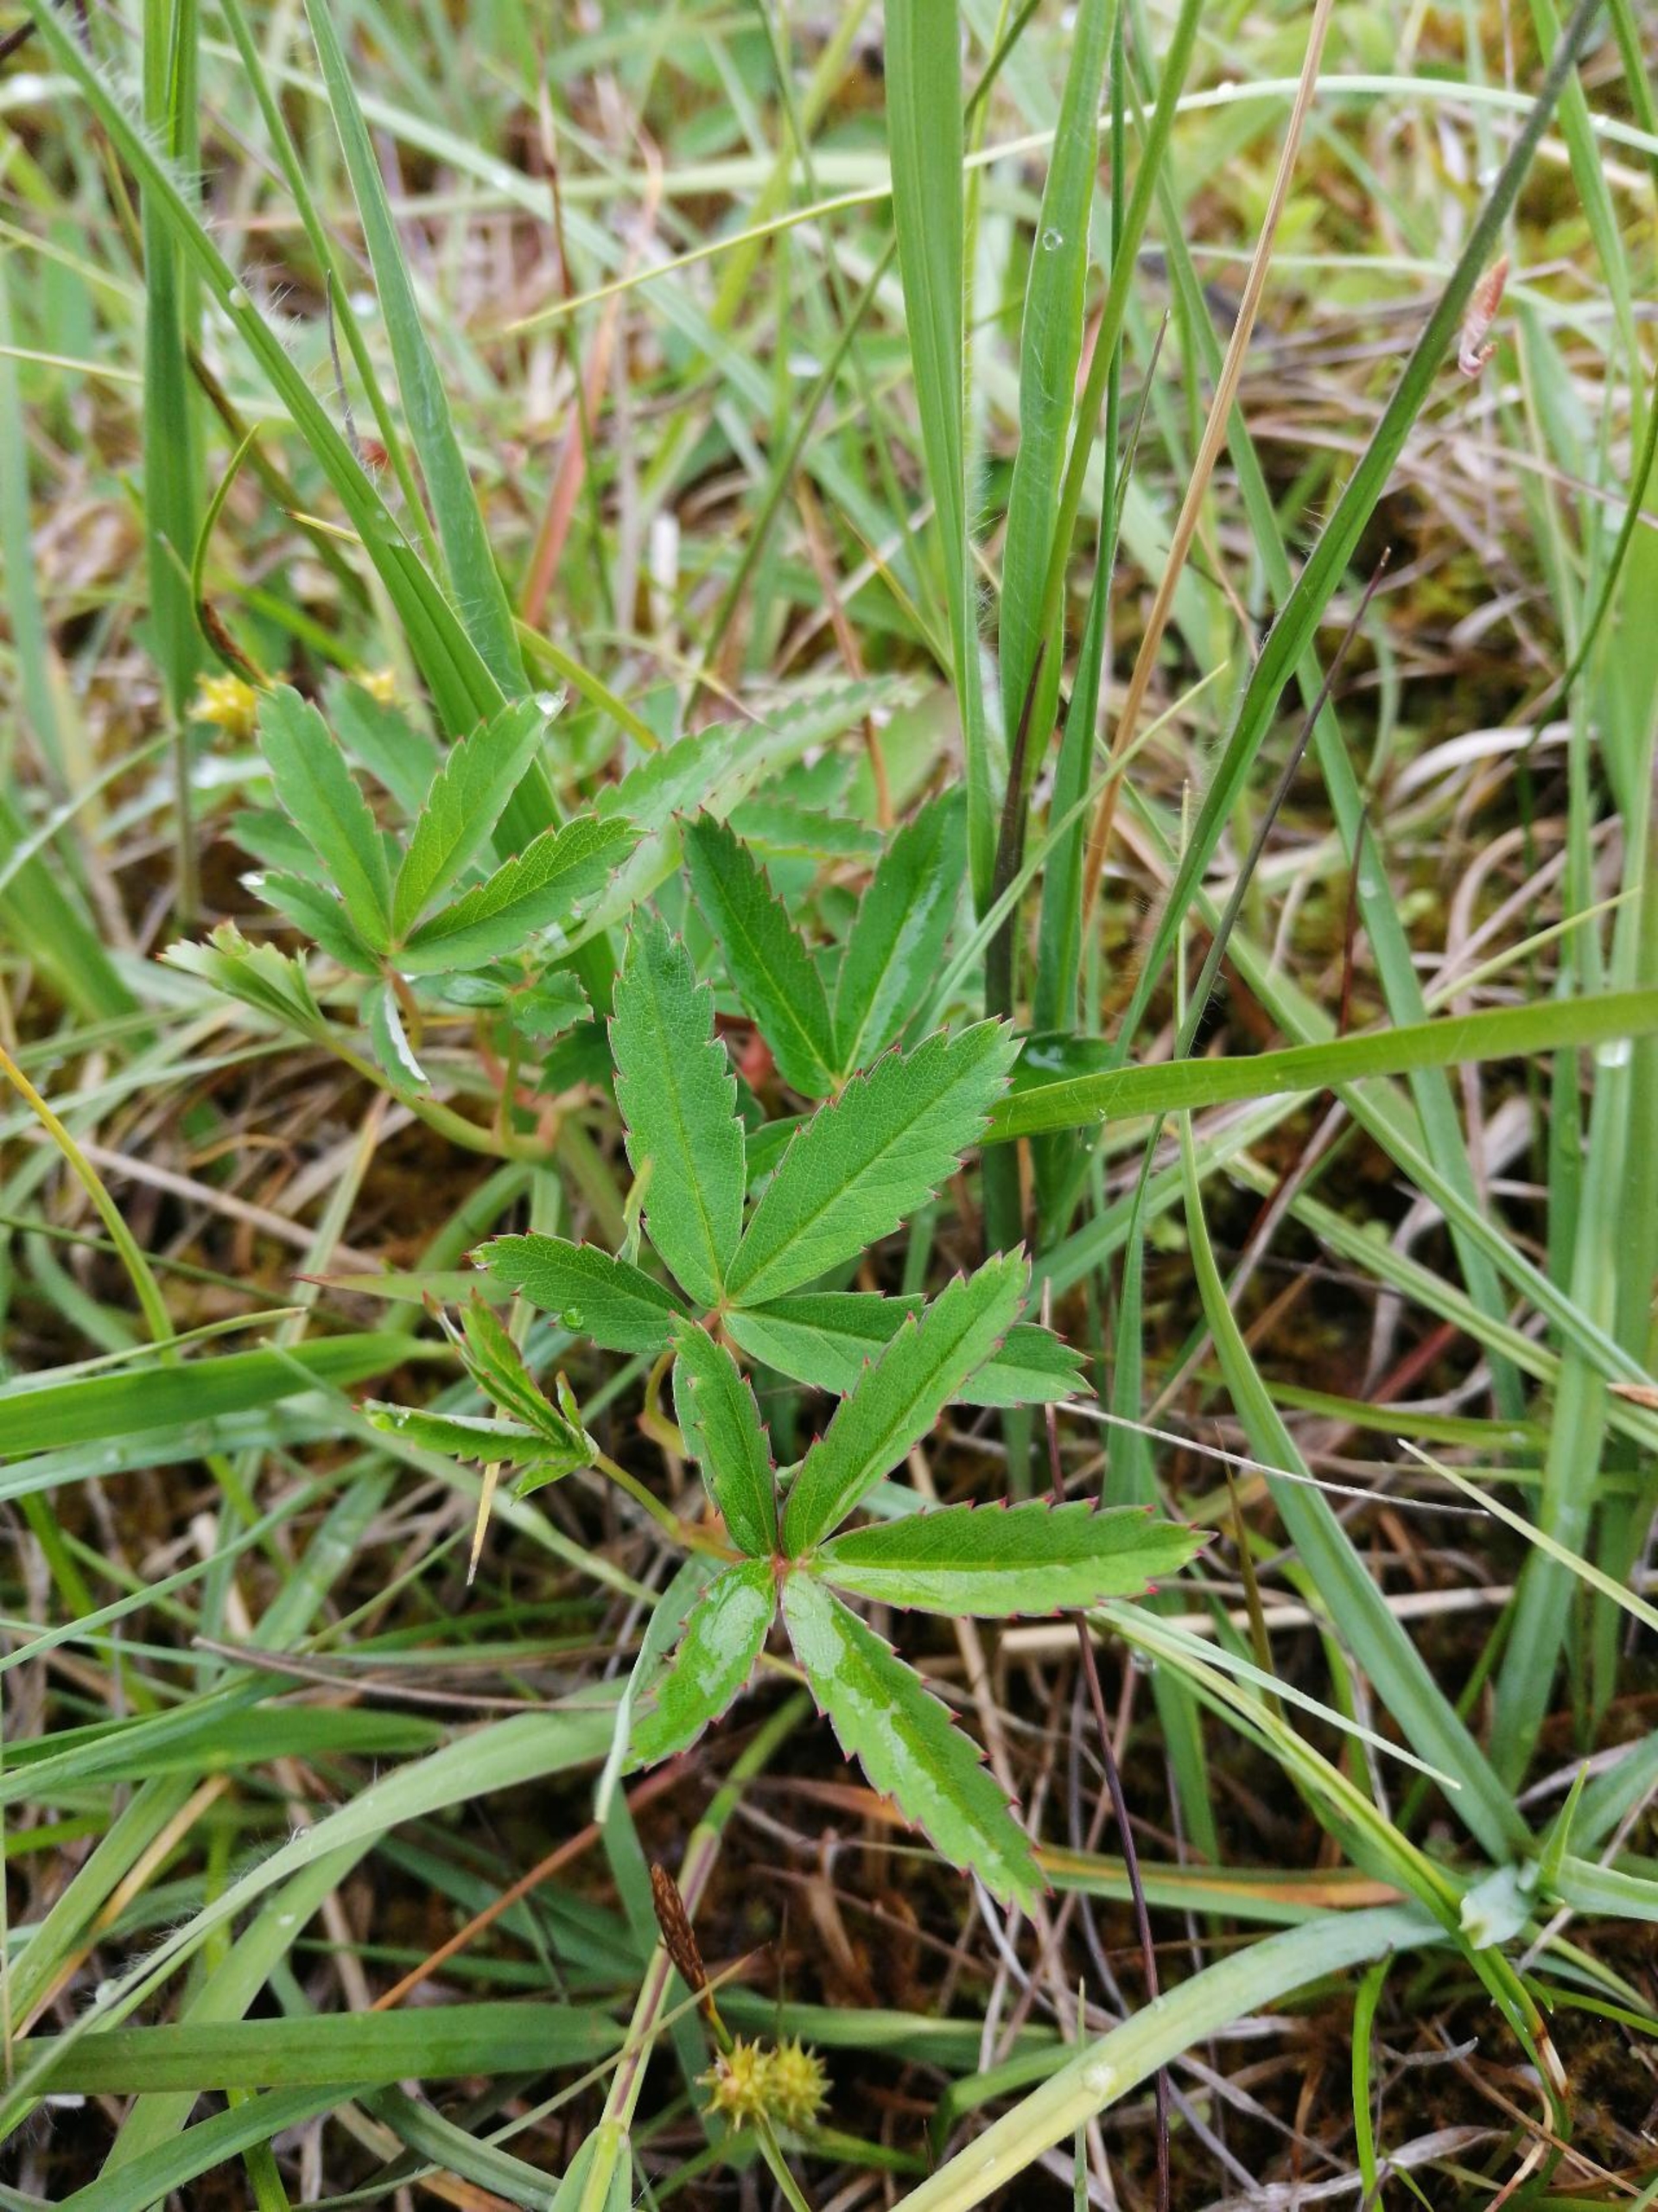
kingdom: Plantae
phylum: Tracheophyta
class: Magnoliopsida
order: Rosales
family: Rosaceae
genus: Comarum
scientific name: Comarum palustre
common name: Kragefod
